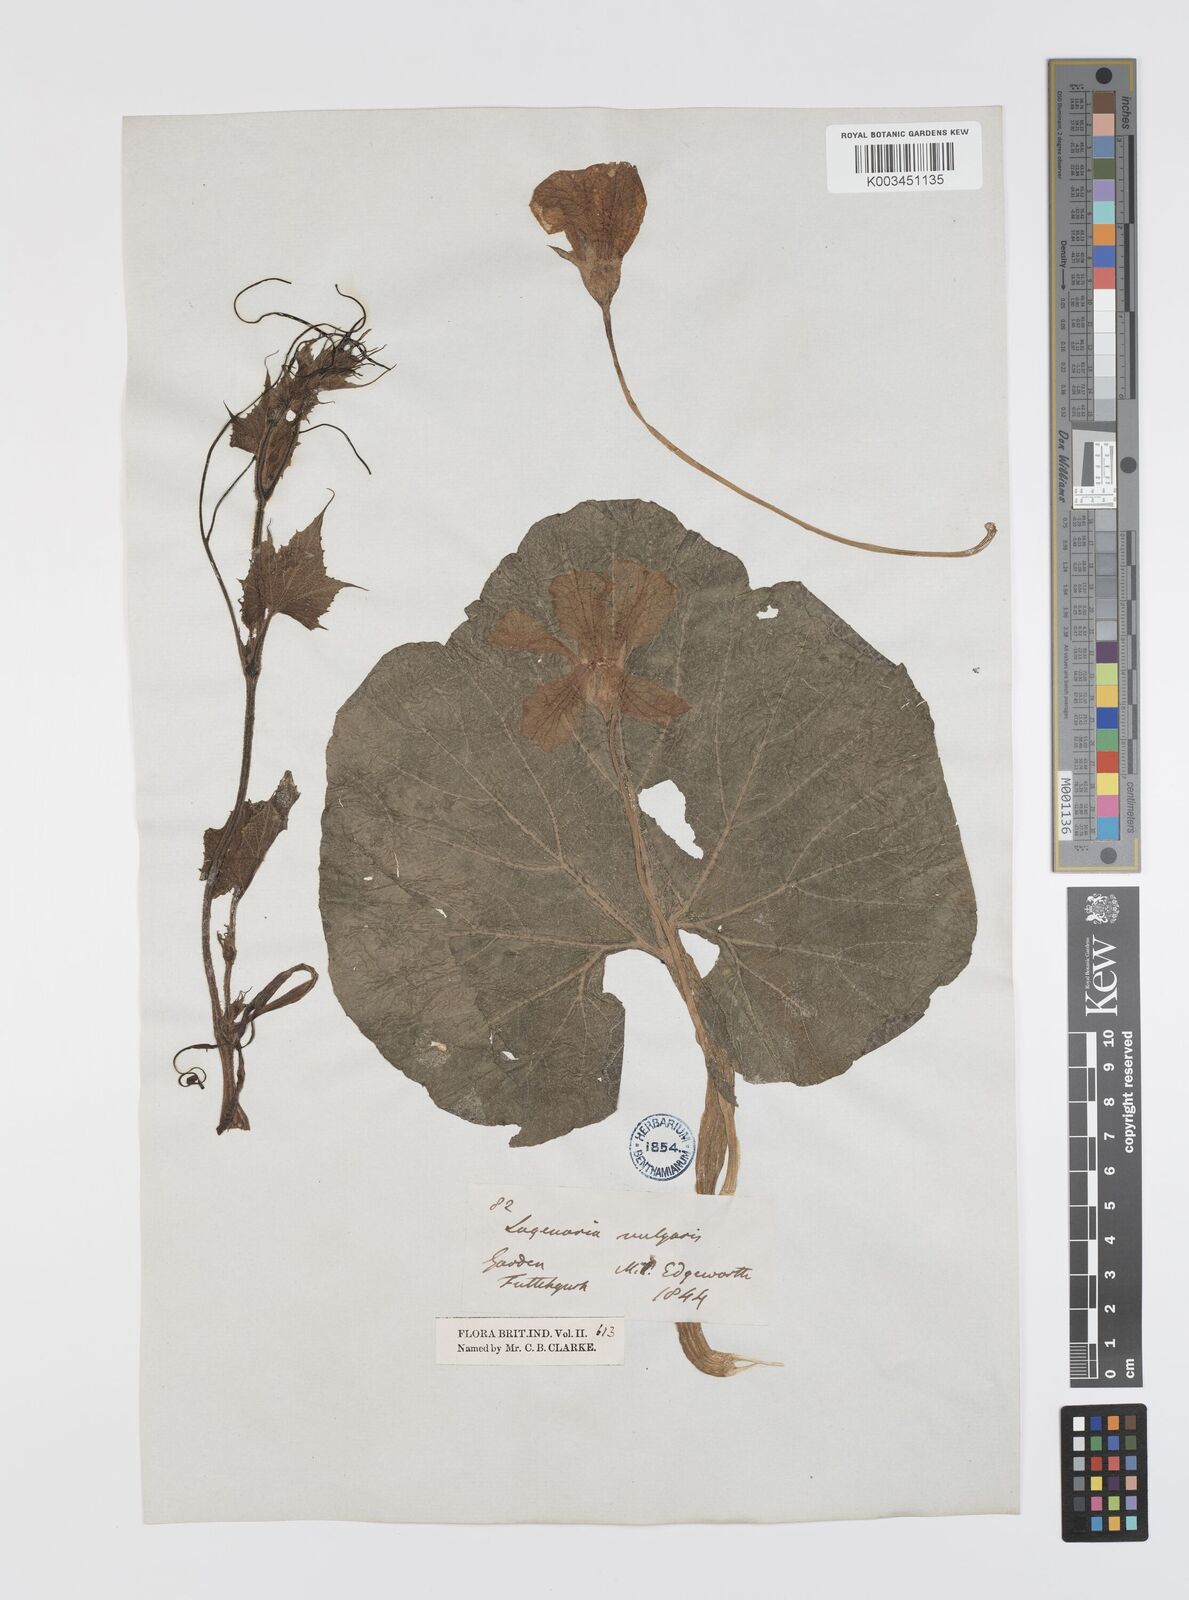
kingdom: Plantae
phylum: Tracheophyta
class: Magnoliopsida
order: Cucurbitales
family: Cucurbitaceae
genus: Lagenaria
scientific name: Lagenaria siceraria
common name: Bottle gourd
